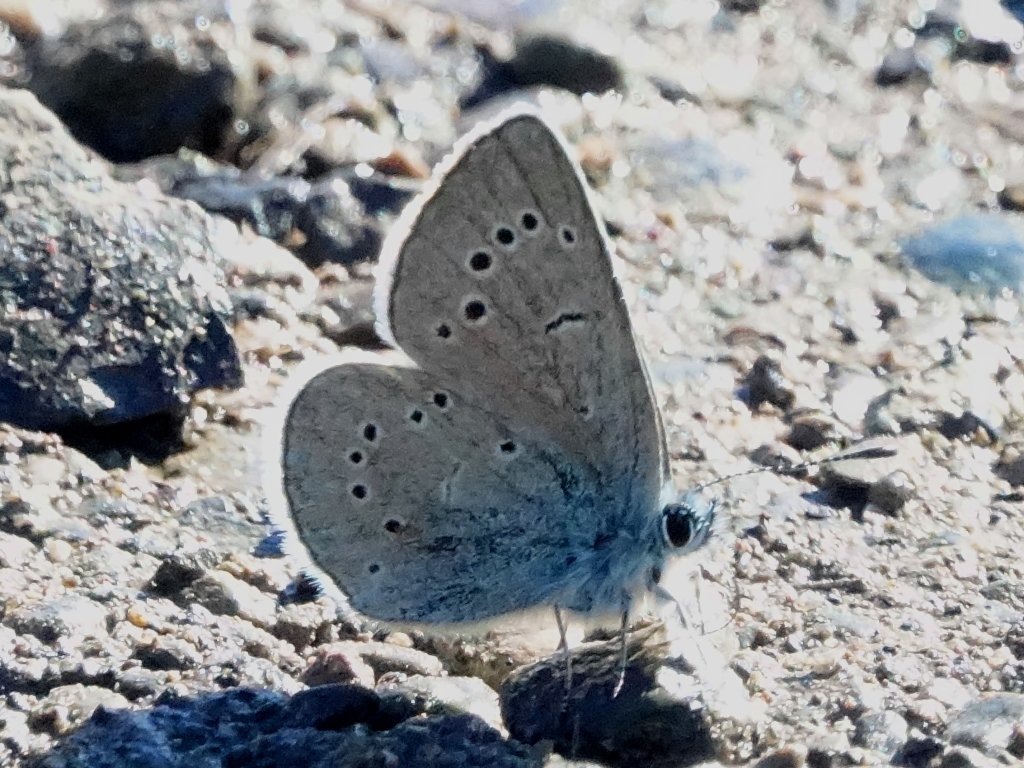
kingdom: Animalia
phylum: Arthropoda
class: Insecta
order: Lepidoptera
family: Lycaenidae
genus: Glaucopsyche
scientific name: Glaucopsyche lygdamus
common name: Silvery Blue
